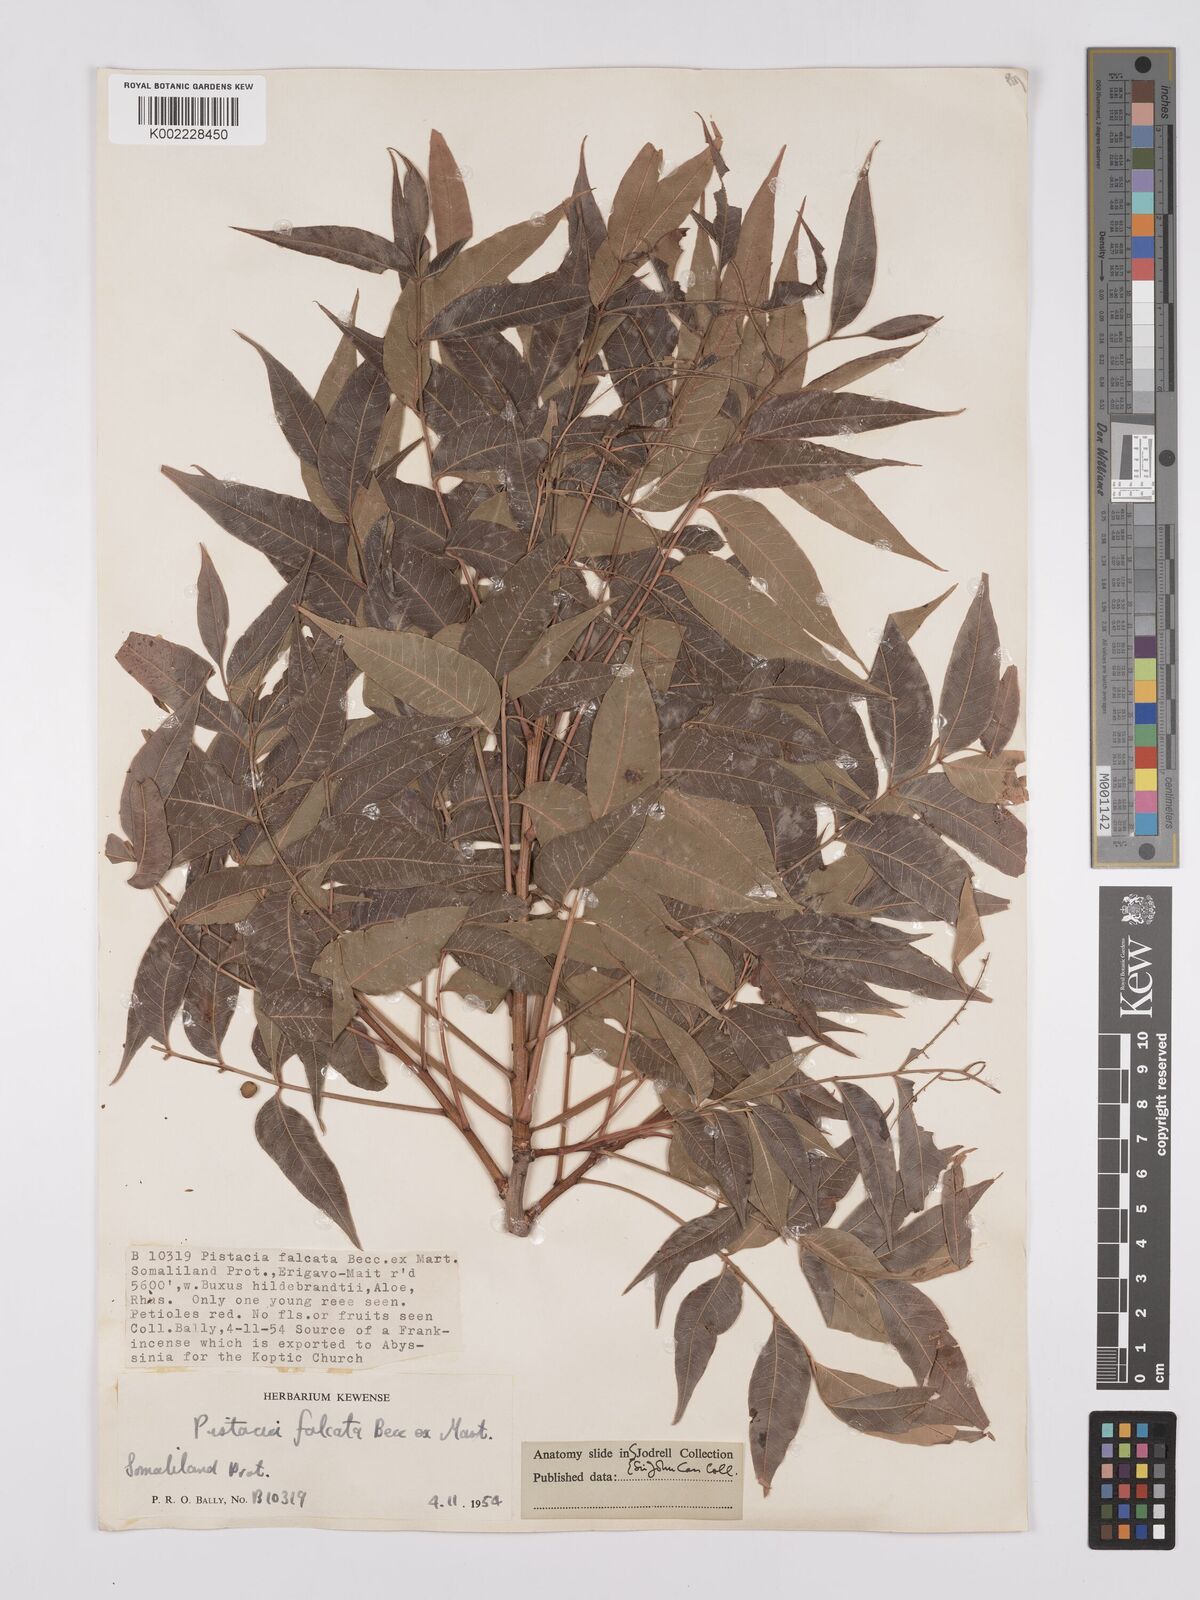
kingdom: Plantae
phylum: Tracheophyta
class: Magnoliopsida
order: Sapindales
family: Anacardiaceae
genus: Pistacia
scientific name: Pistacia falcata
